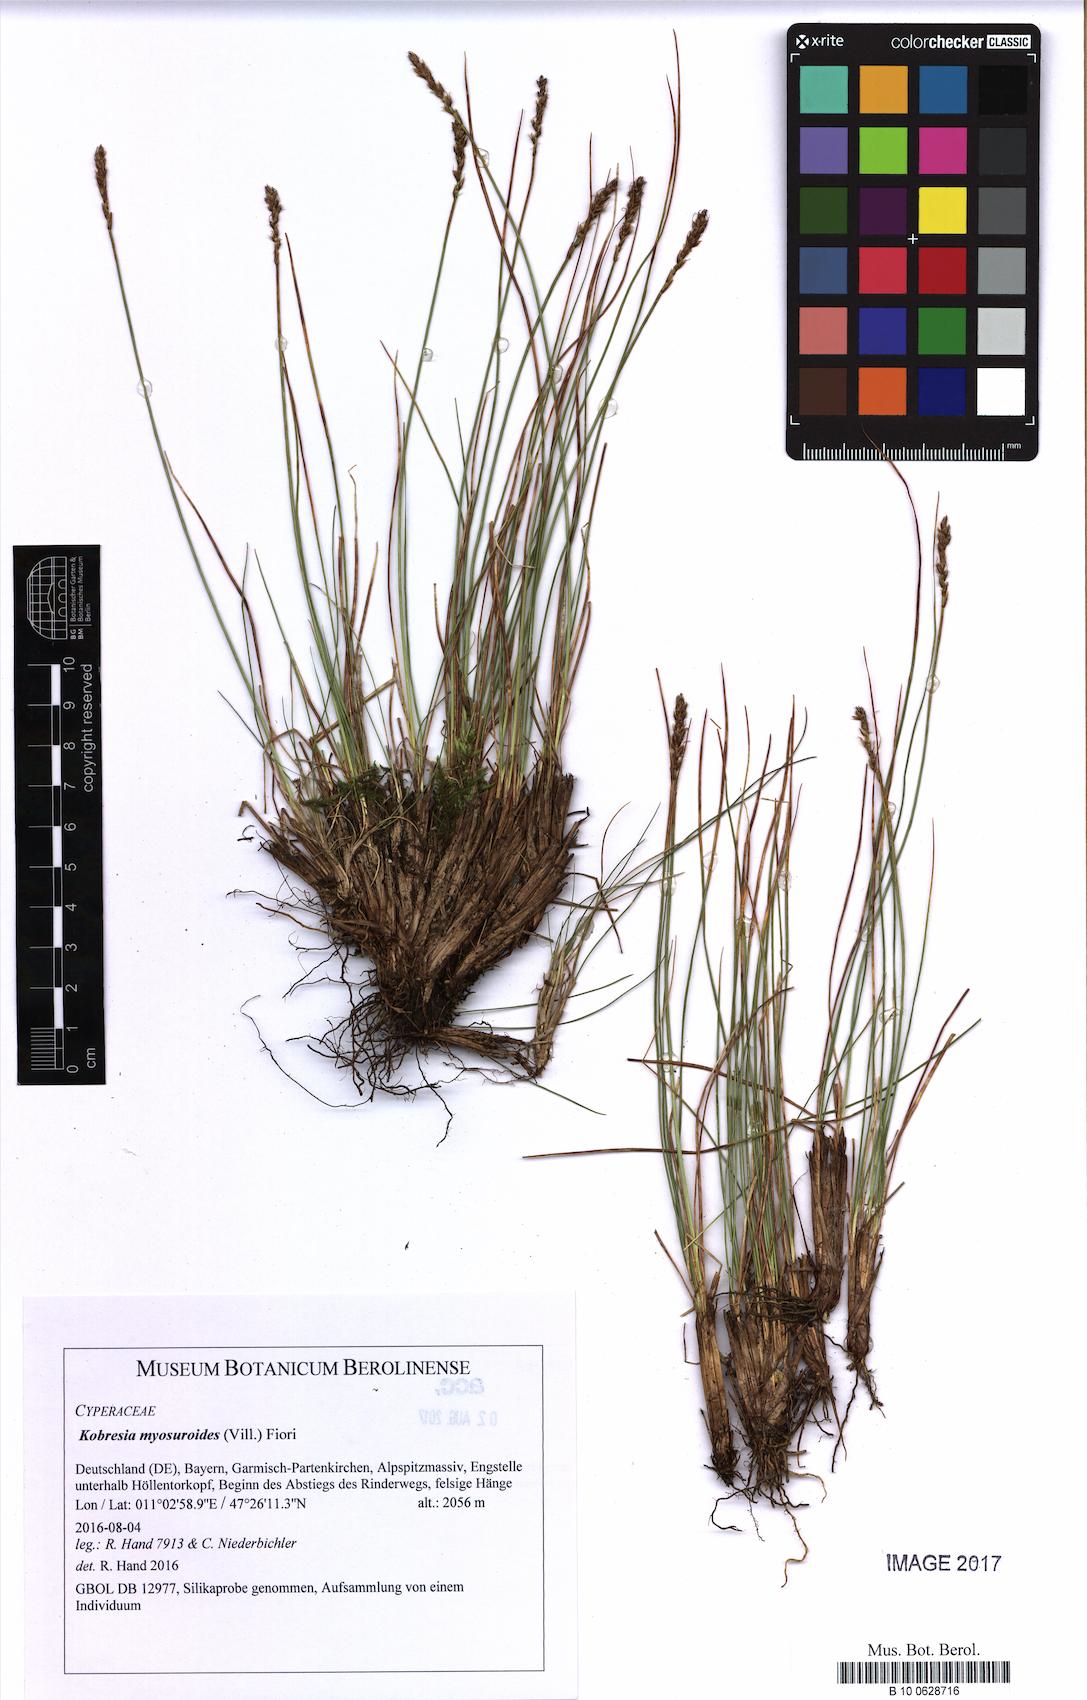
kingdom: Plantae
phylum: Tracheophyta
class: Liliopsida
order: Poales
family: Cyperaceae
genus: Carex
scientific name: Carex myosuroides
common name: Bellard's bog sedge
